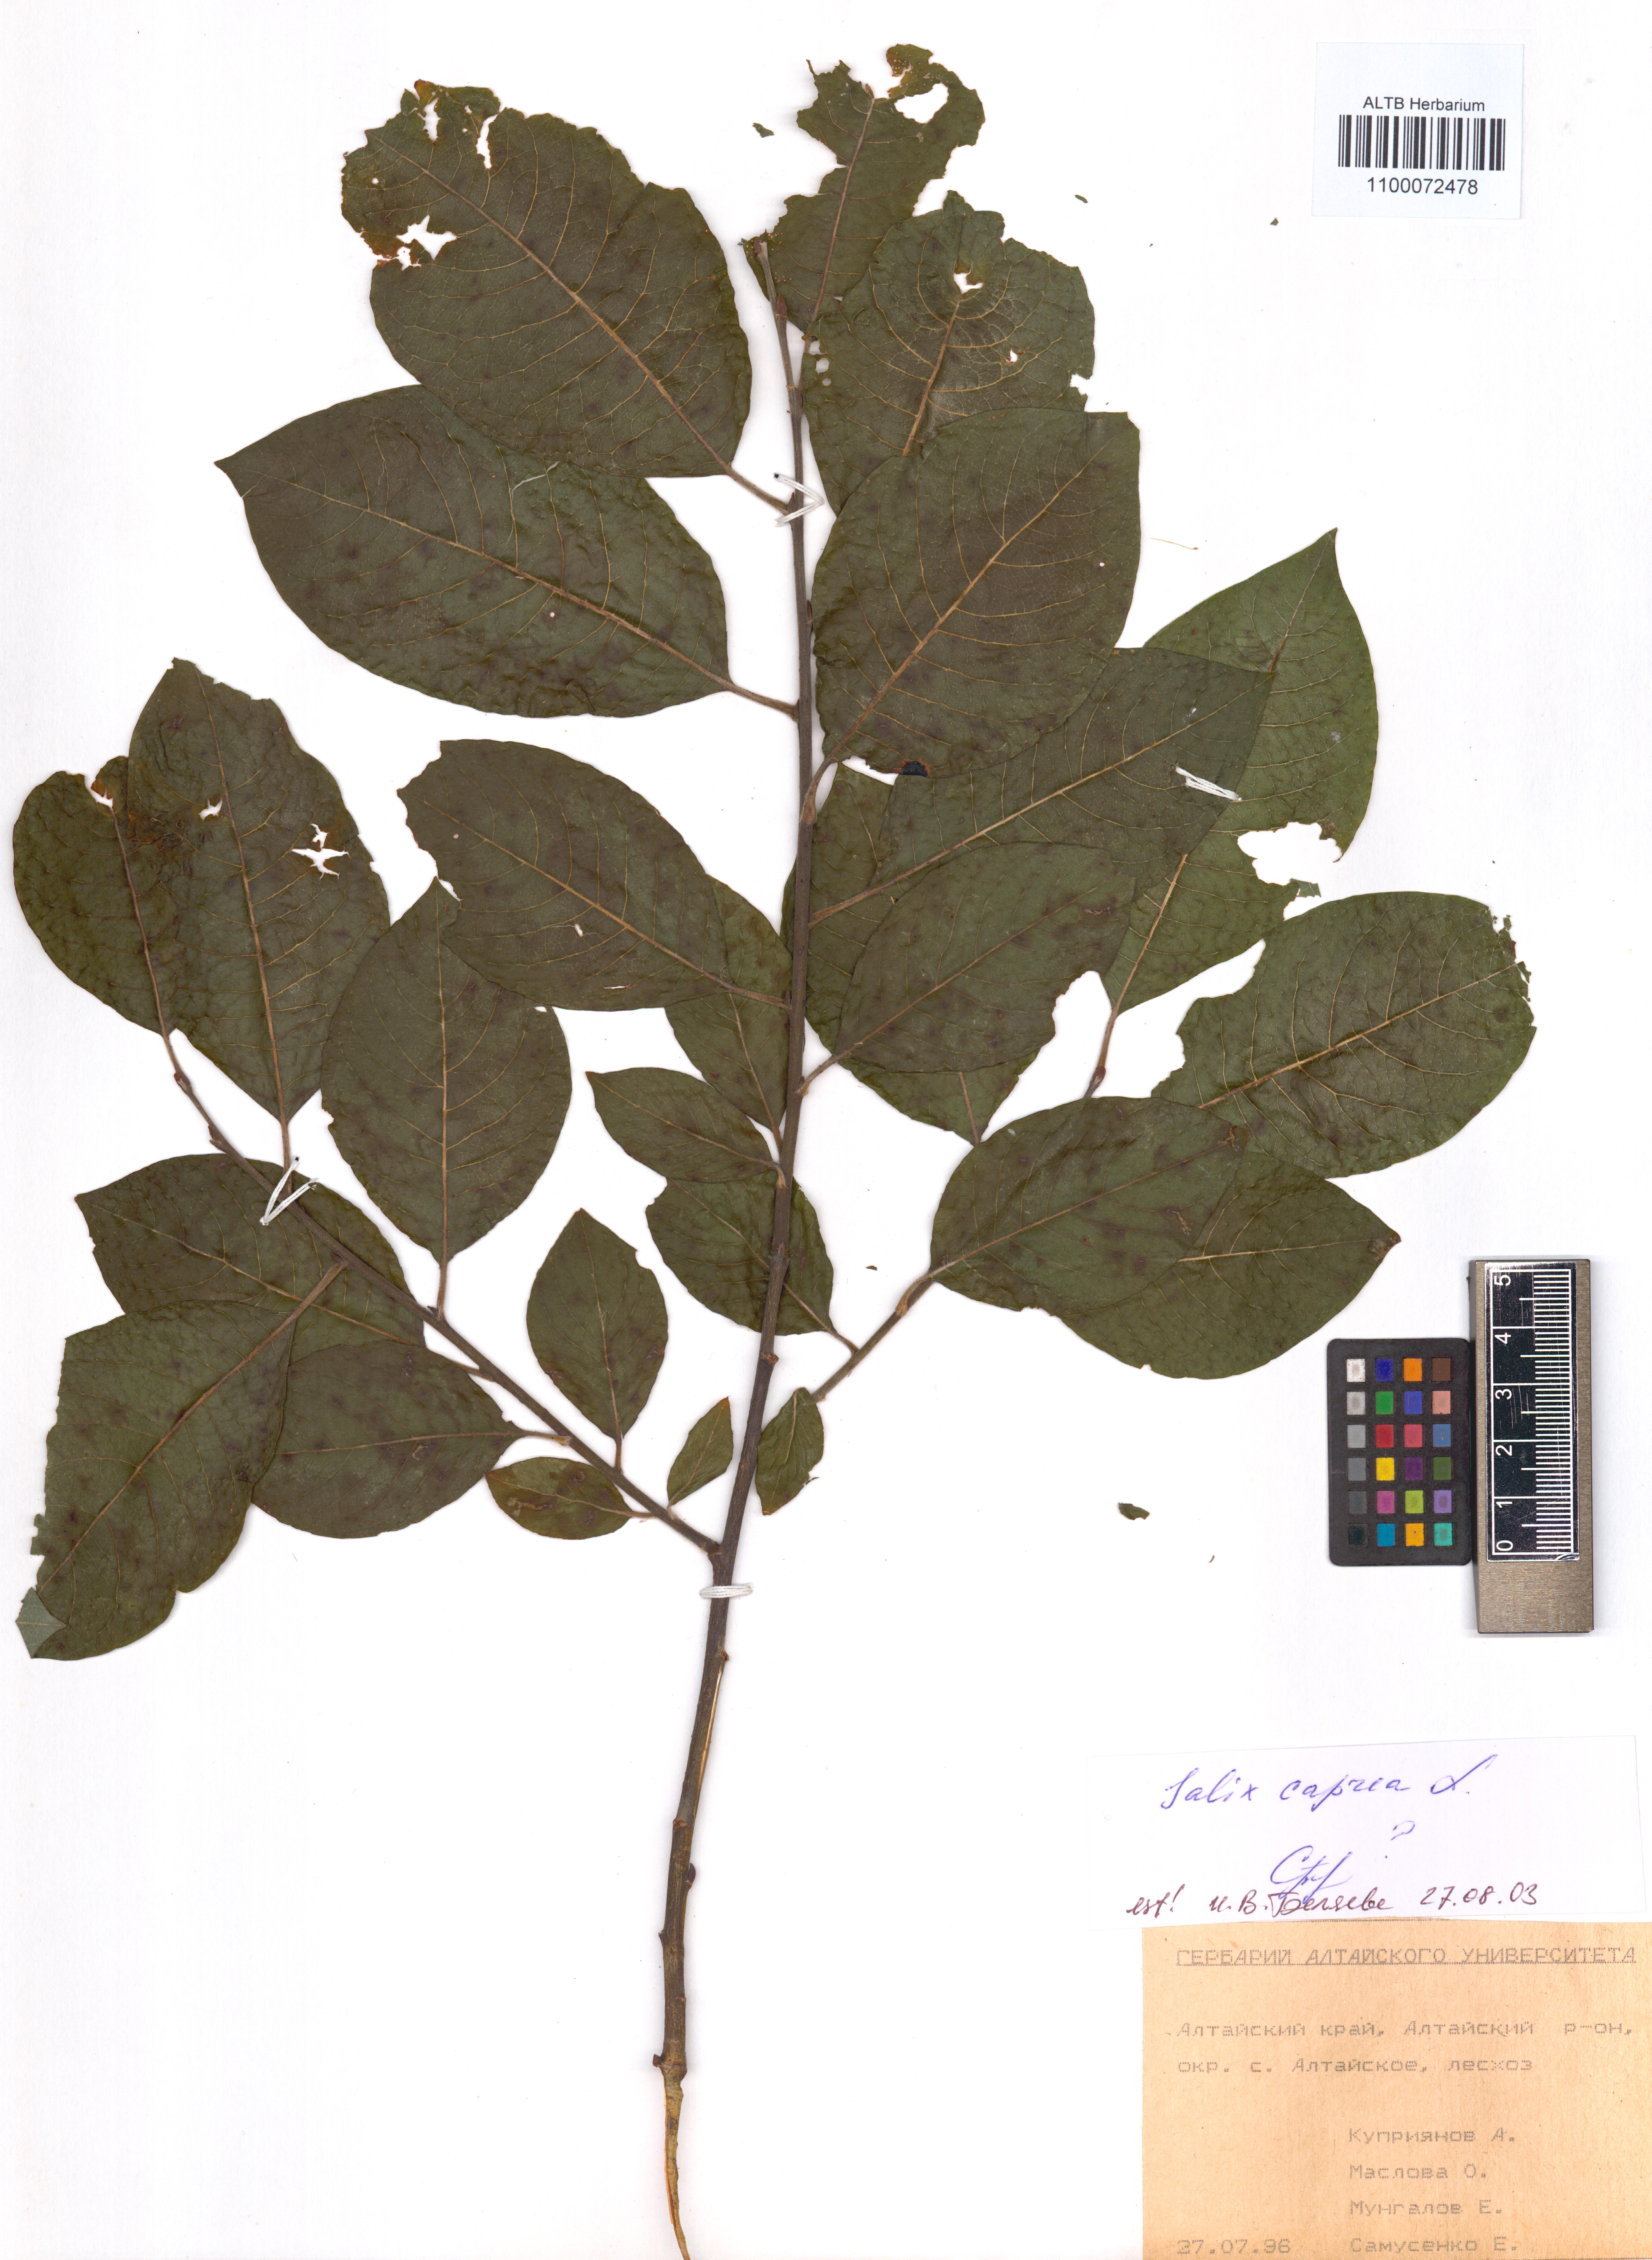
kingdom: Plantae
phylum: Tracheophyta
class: Magnoliopsida
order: Malpighiales
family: Salicaceae
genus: Salix
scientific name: Salix caprea
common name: Goat willow
